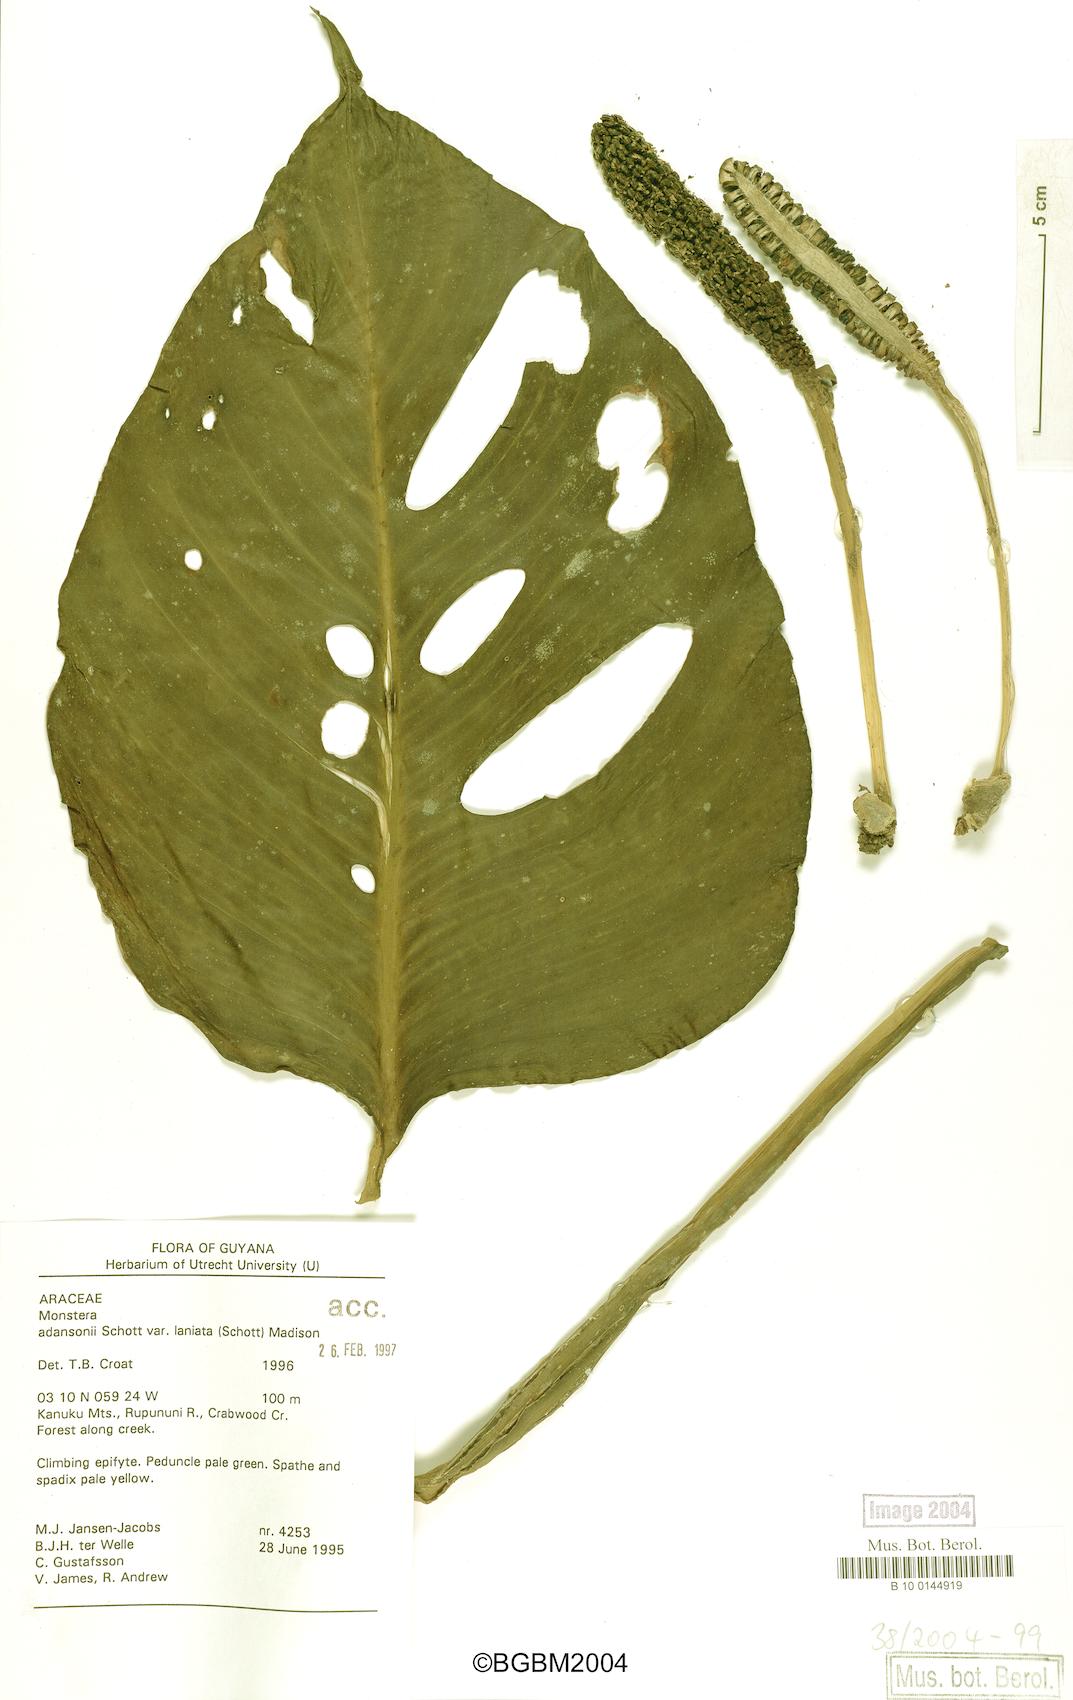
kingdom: Plantae
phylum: Tracheophyta
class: Liliopsida
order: Alismatales
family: Araceae
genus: Monstera
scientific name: Monstera adansonii
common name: Tarovine
